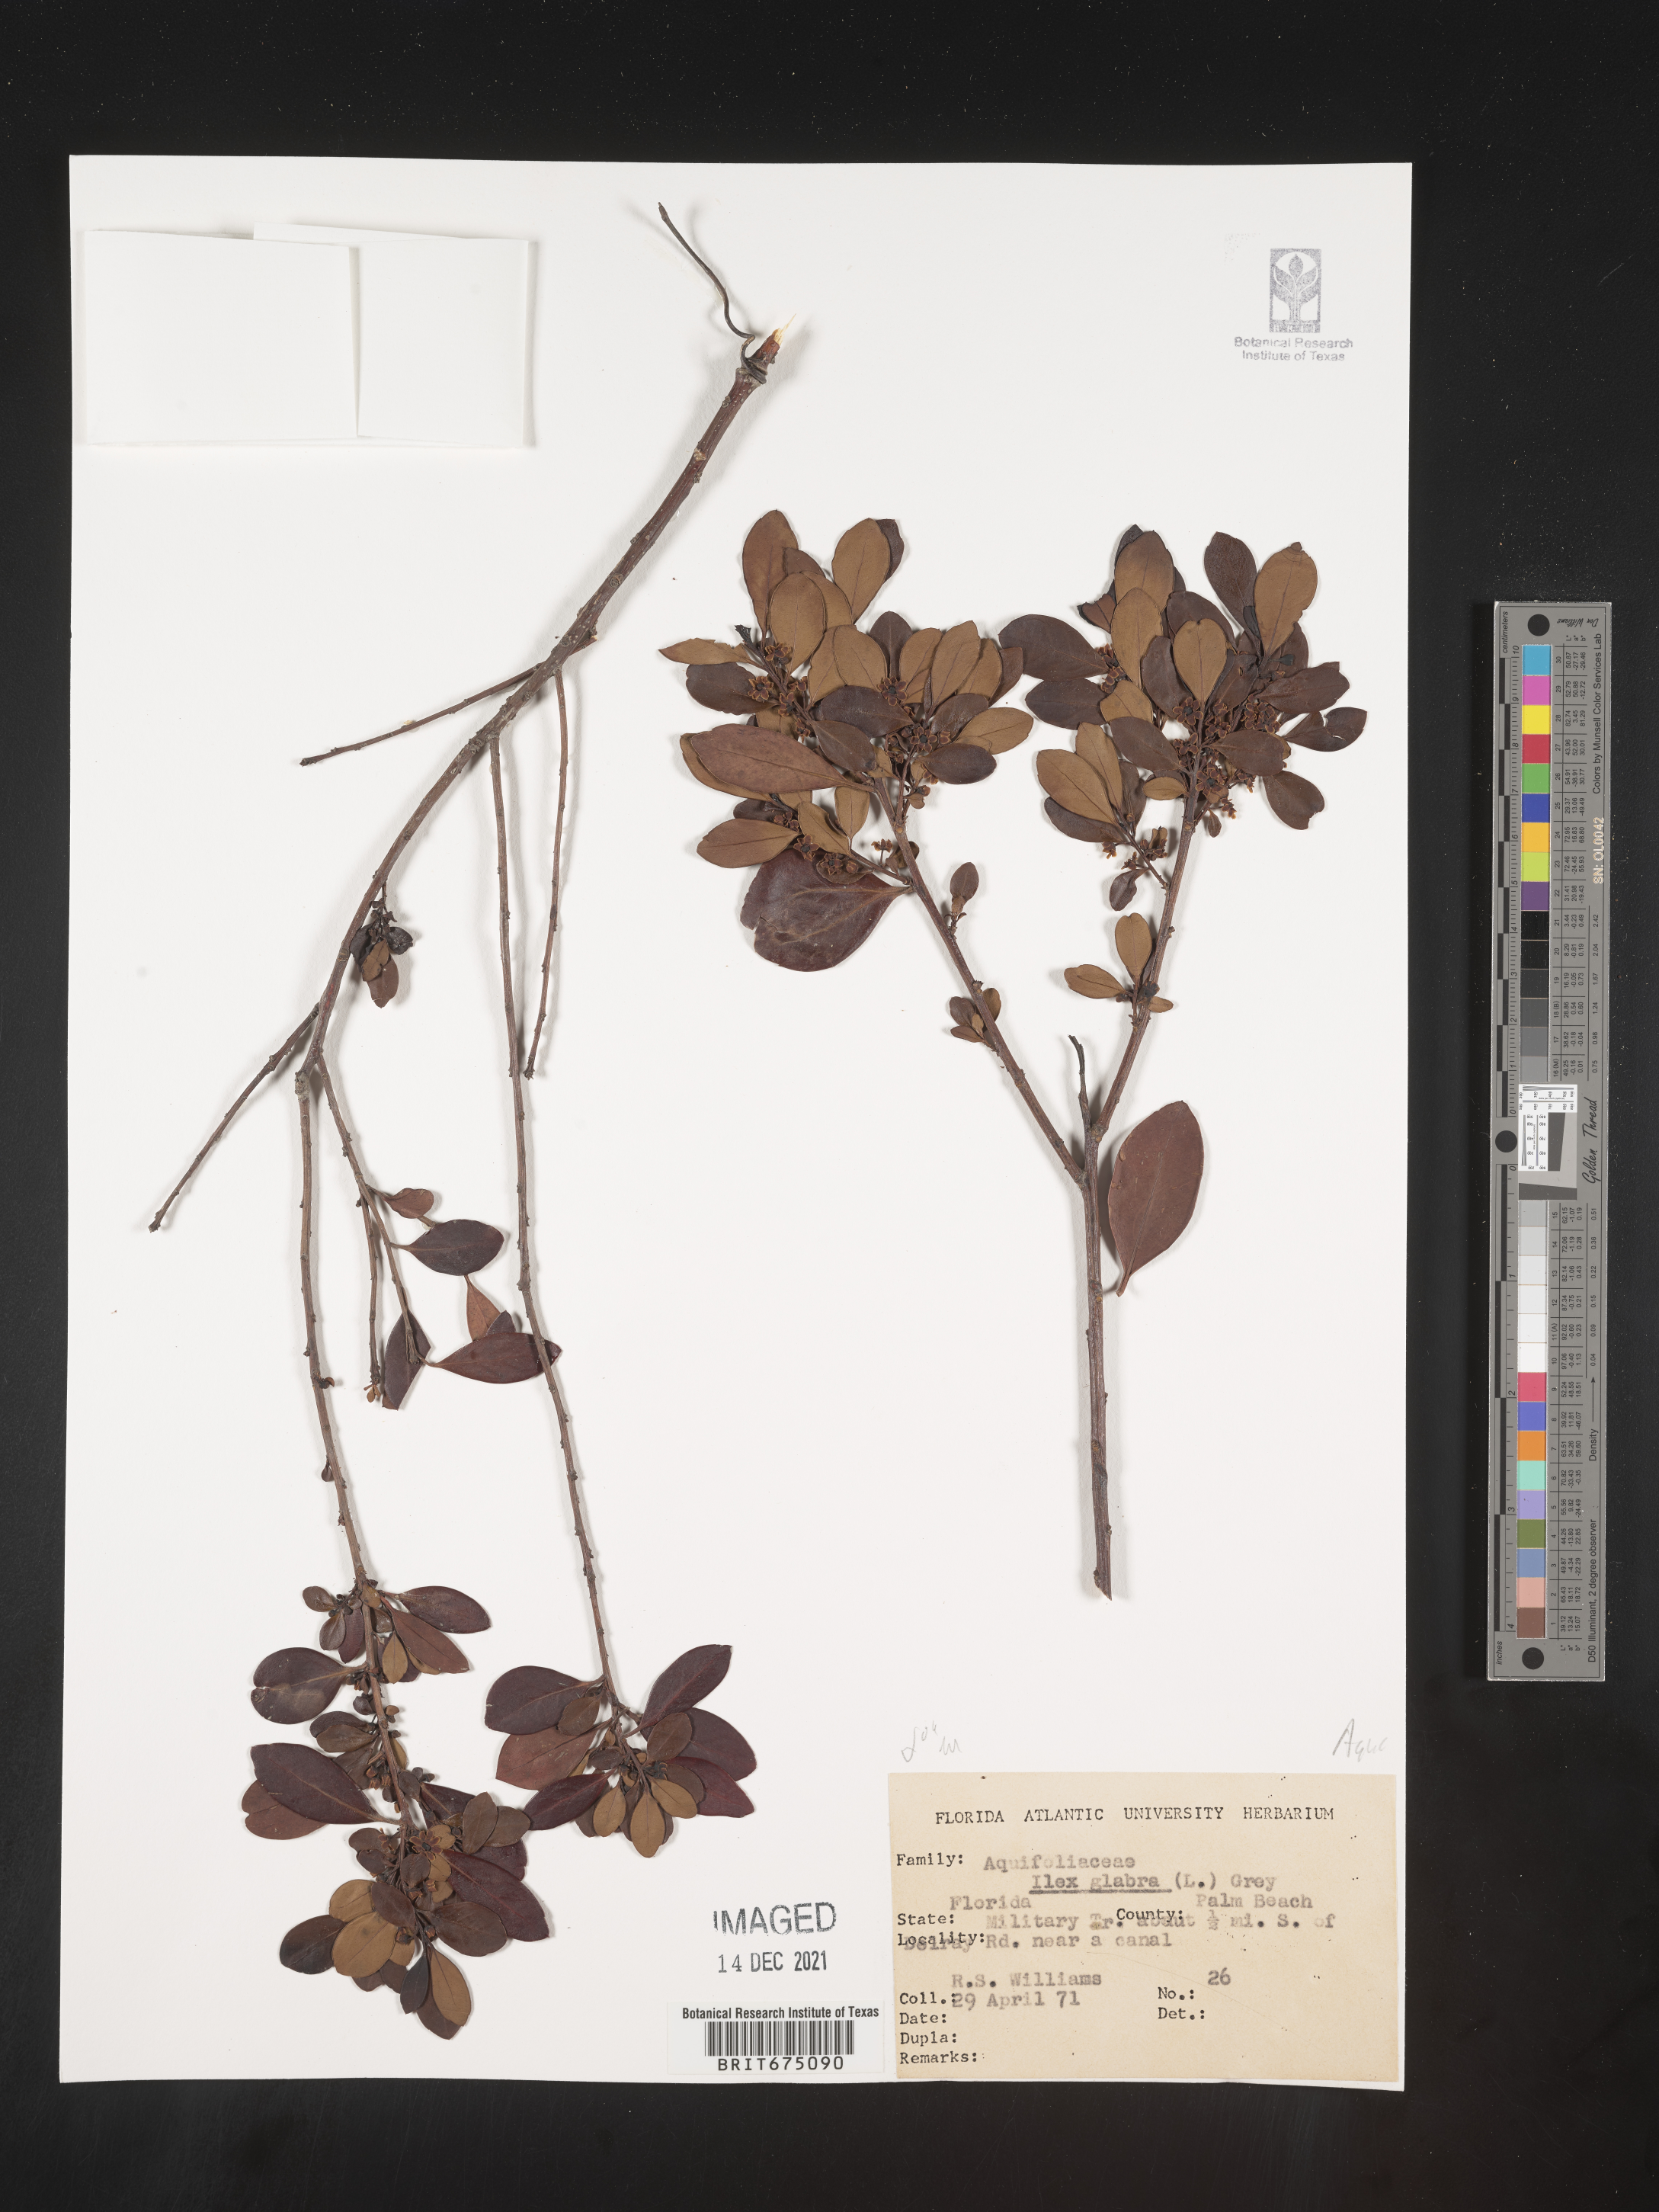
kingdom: Plantae
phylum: Tracheophyta
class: Magnoliopsida
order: Aquifoliales
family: Aquifoliaceae
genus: Ilex
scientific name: Ilex glabra
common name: Bitter gallberry
